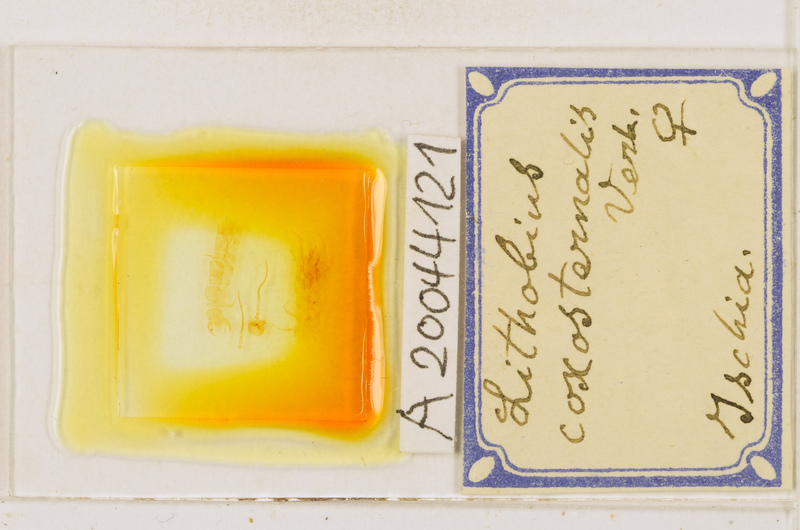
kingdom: Animalia
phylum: Arthropoda
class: Chilopoda
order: Lithobiomorpha
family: Lithobiidae
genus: Lithobius
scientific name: Lithobius erythrocephalus
